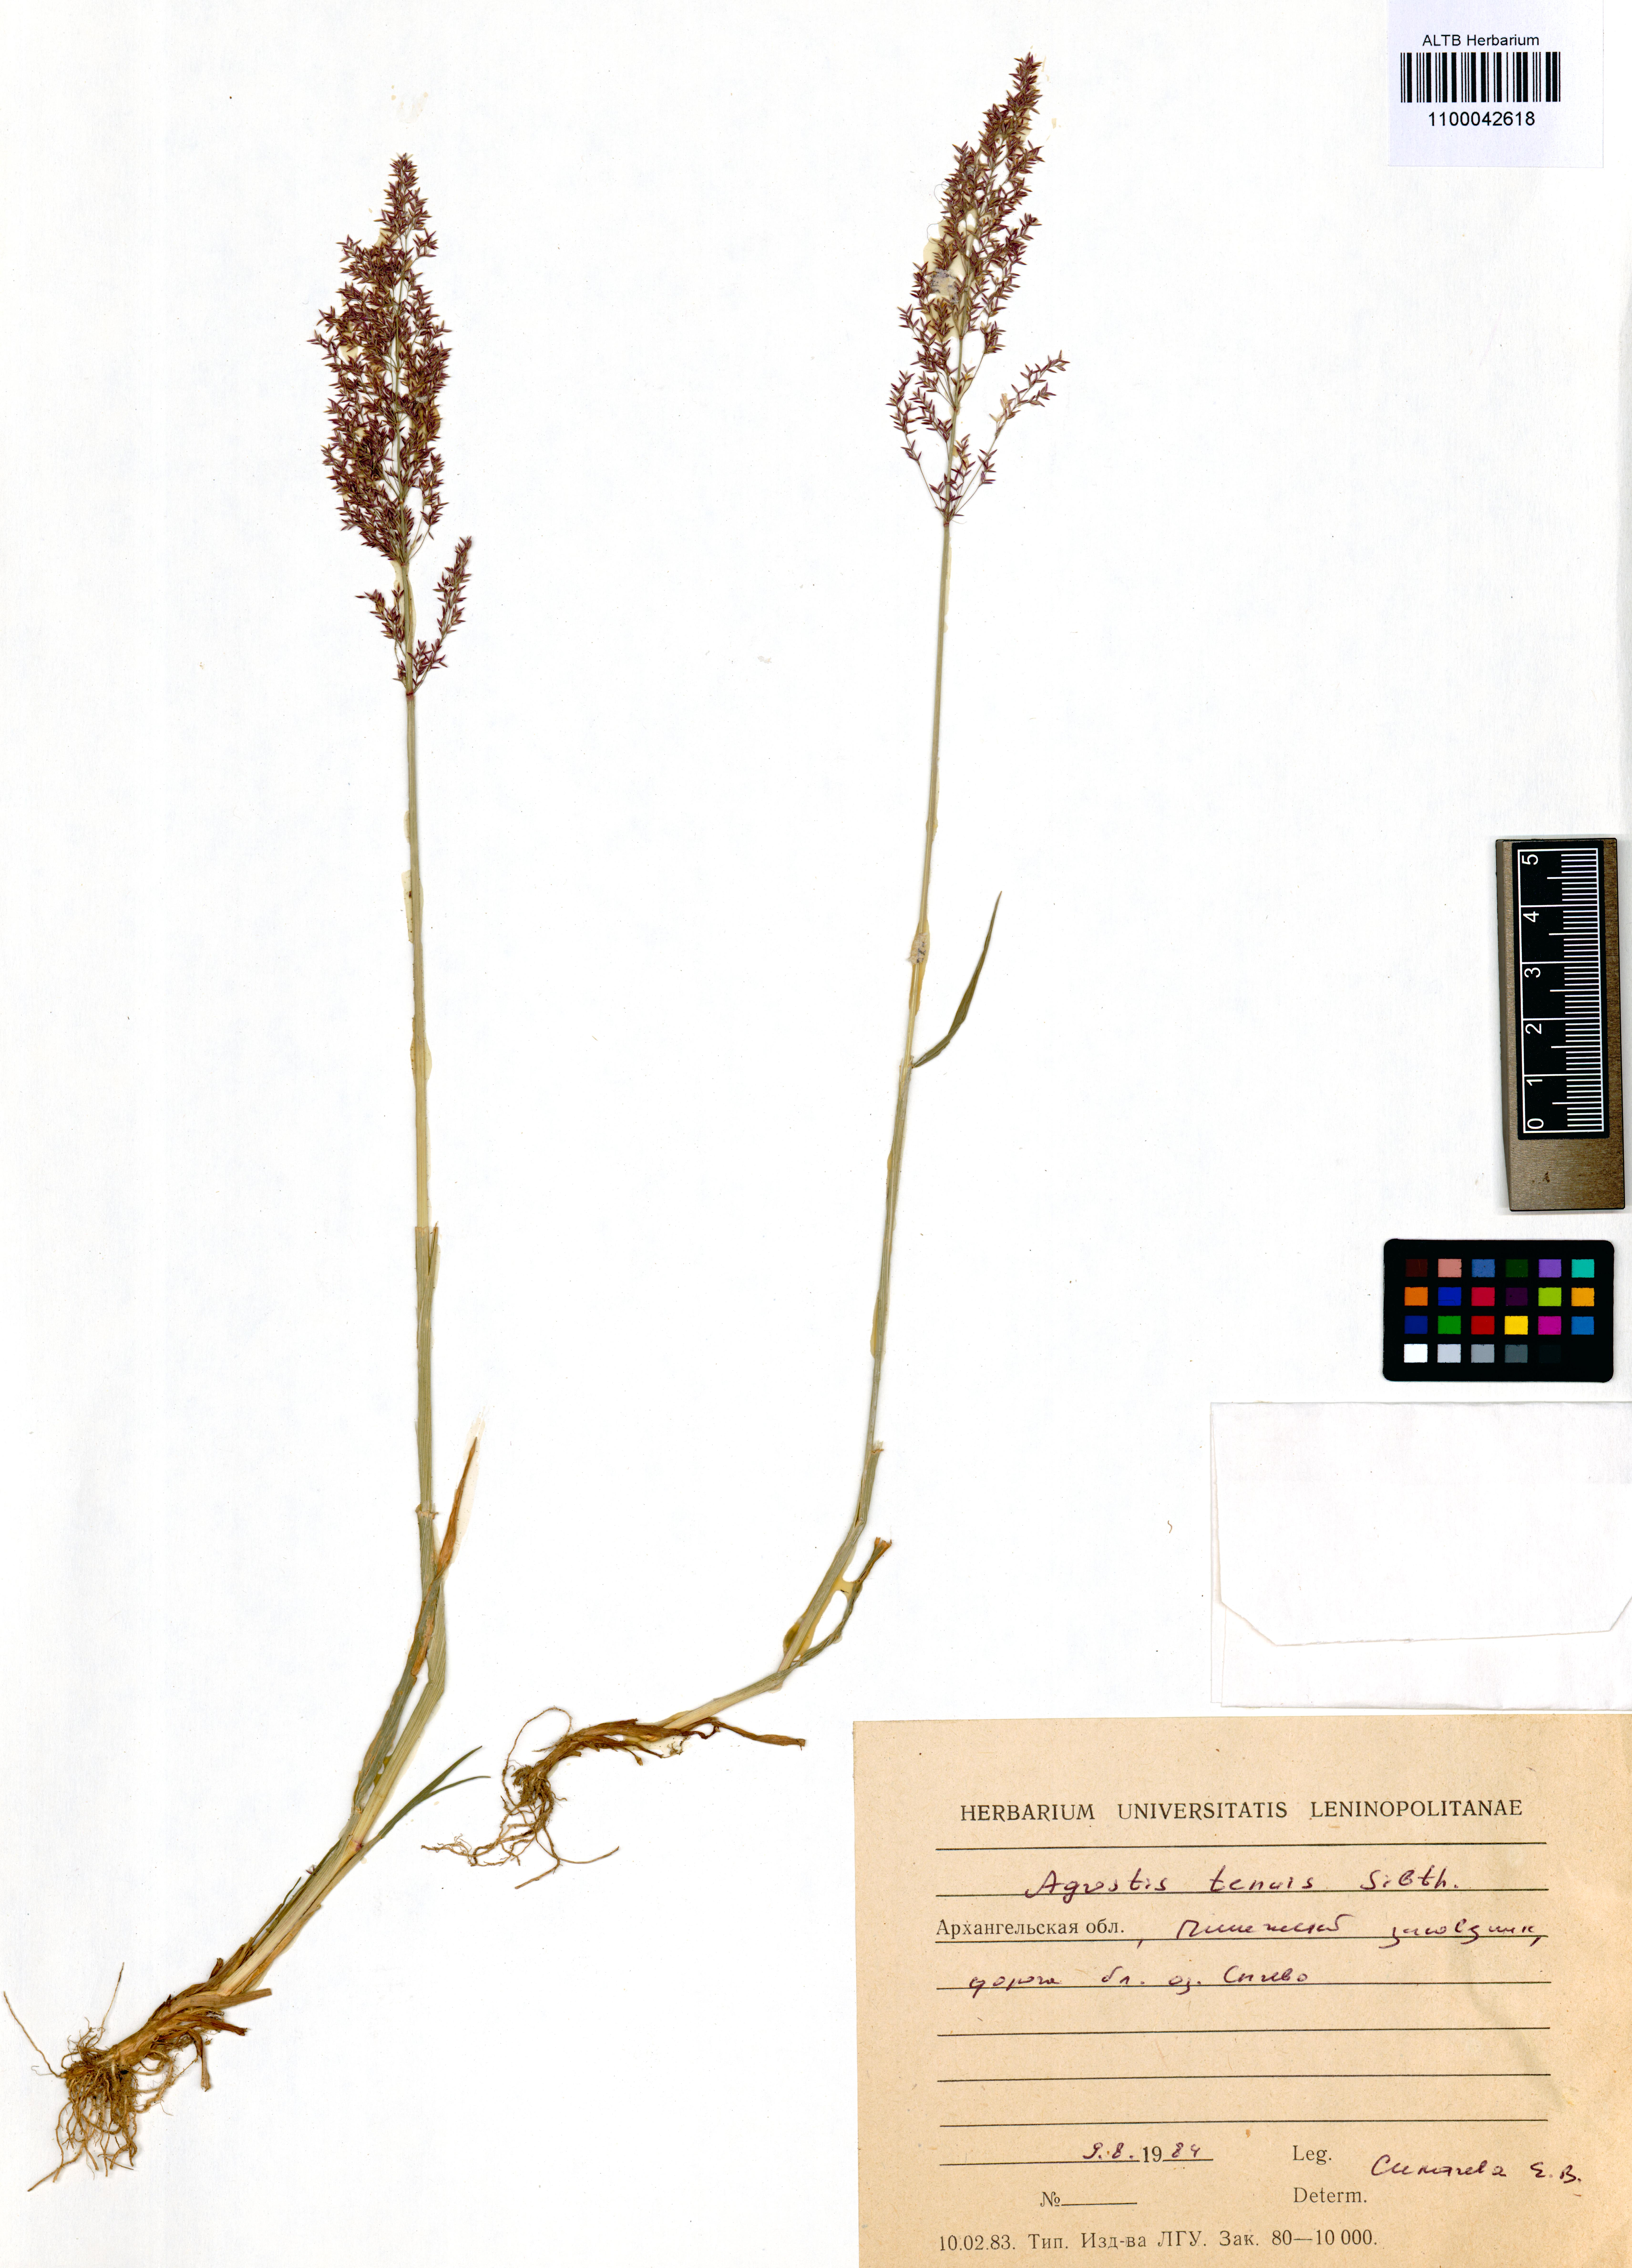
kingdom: Plantae
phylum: Tracheophyta
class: Liliopsida
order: Poales
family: Poaceae
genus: Agrostis
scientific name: Agrostis capillaris
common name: Colonial bentgrass
